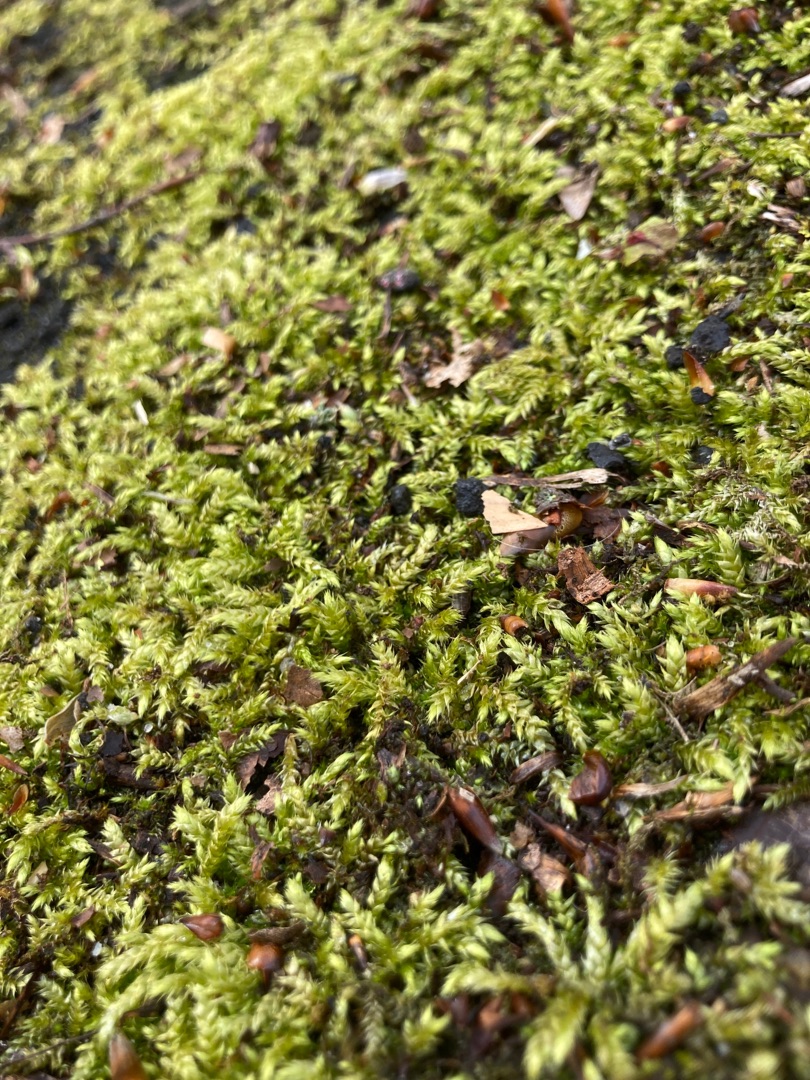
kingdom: Plantae
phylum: Bryophyta
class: Bryopsida
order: Hypnales
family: Brachytheciaceae
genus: Brachythecium
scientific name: Brachythecium rutabulum
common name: Almindelig kortkapsel
